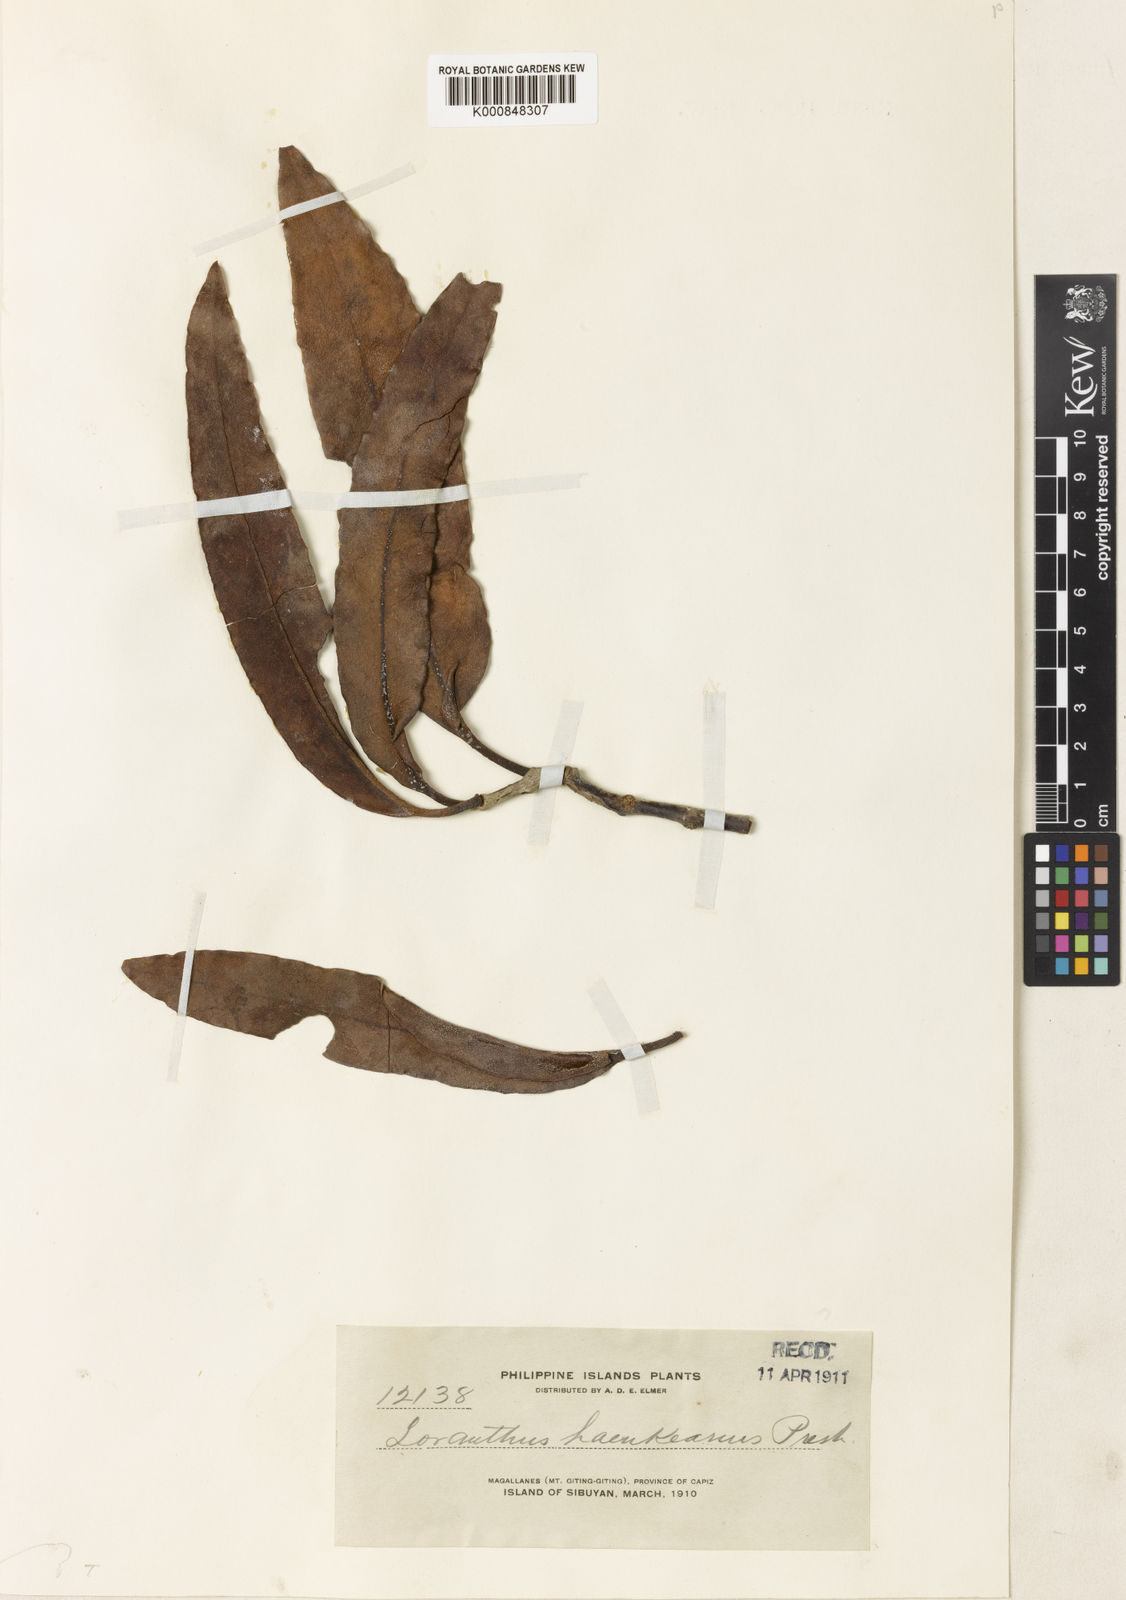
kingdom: Plantae
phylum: Tracheophyta
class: Magnoliopsida
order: Santalales
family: Loranthaceae
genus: Amyema
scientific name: Amyema haenkeana
